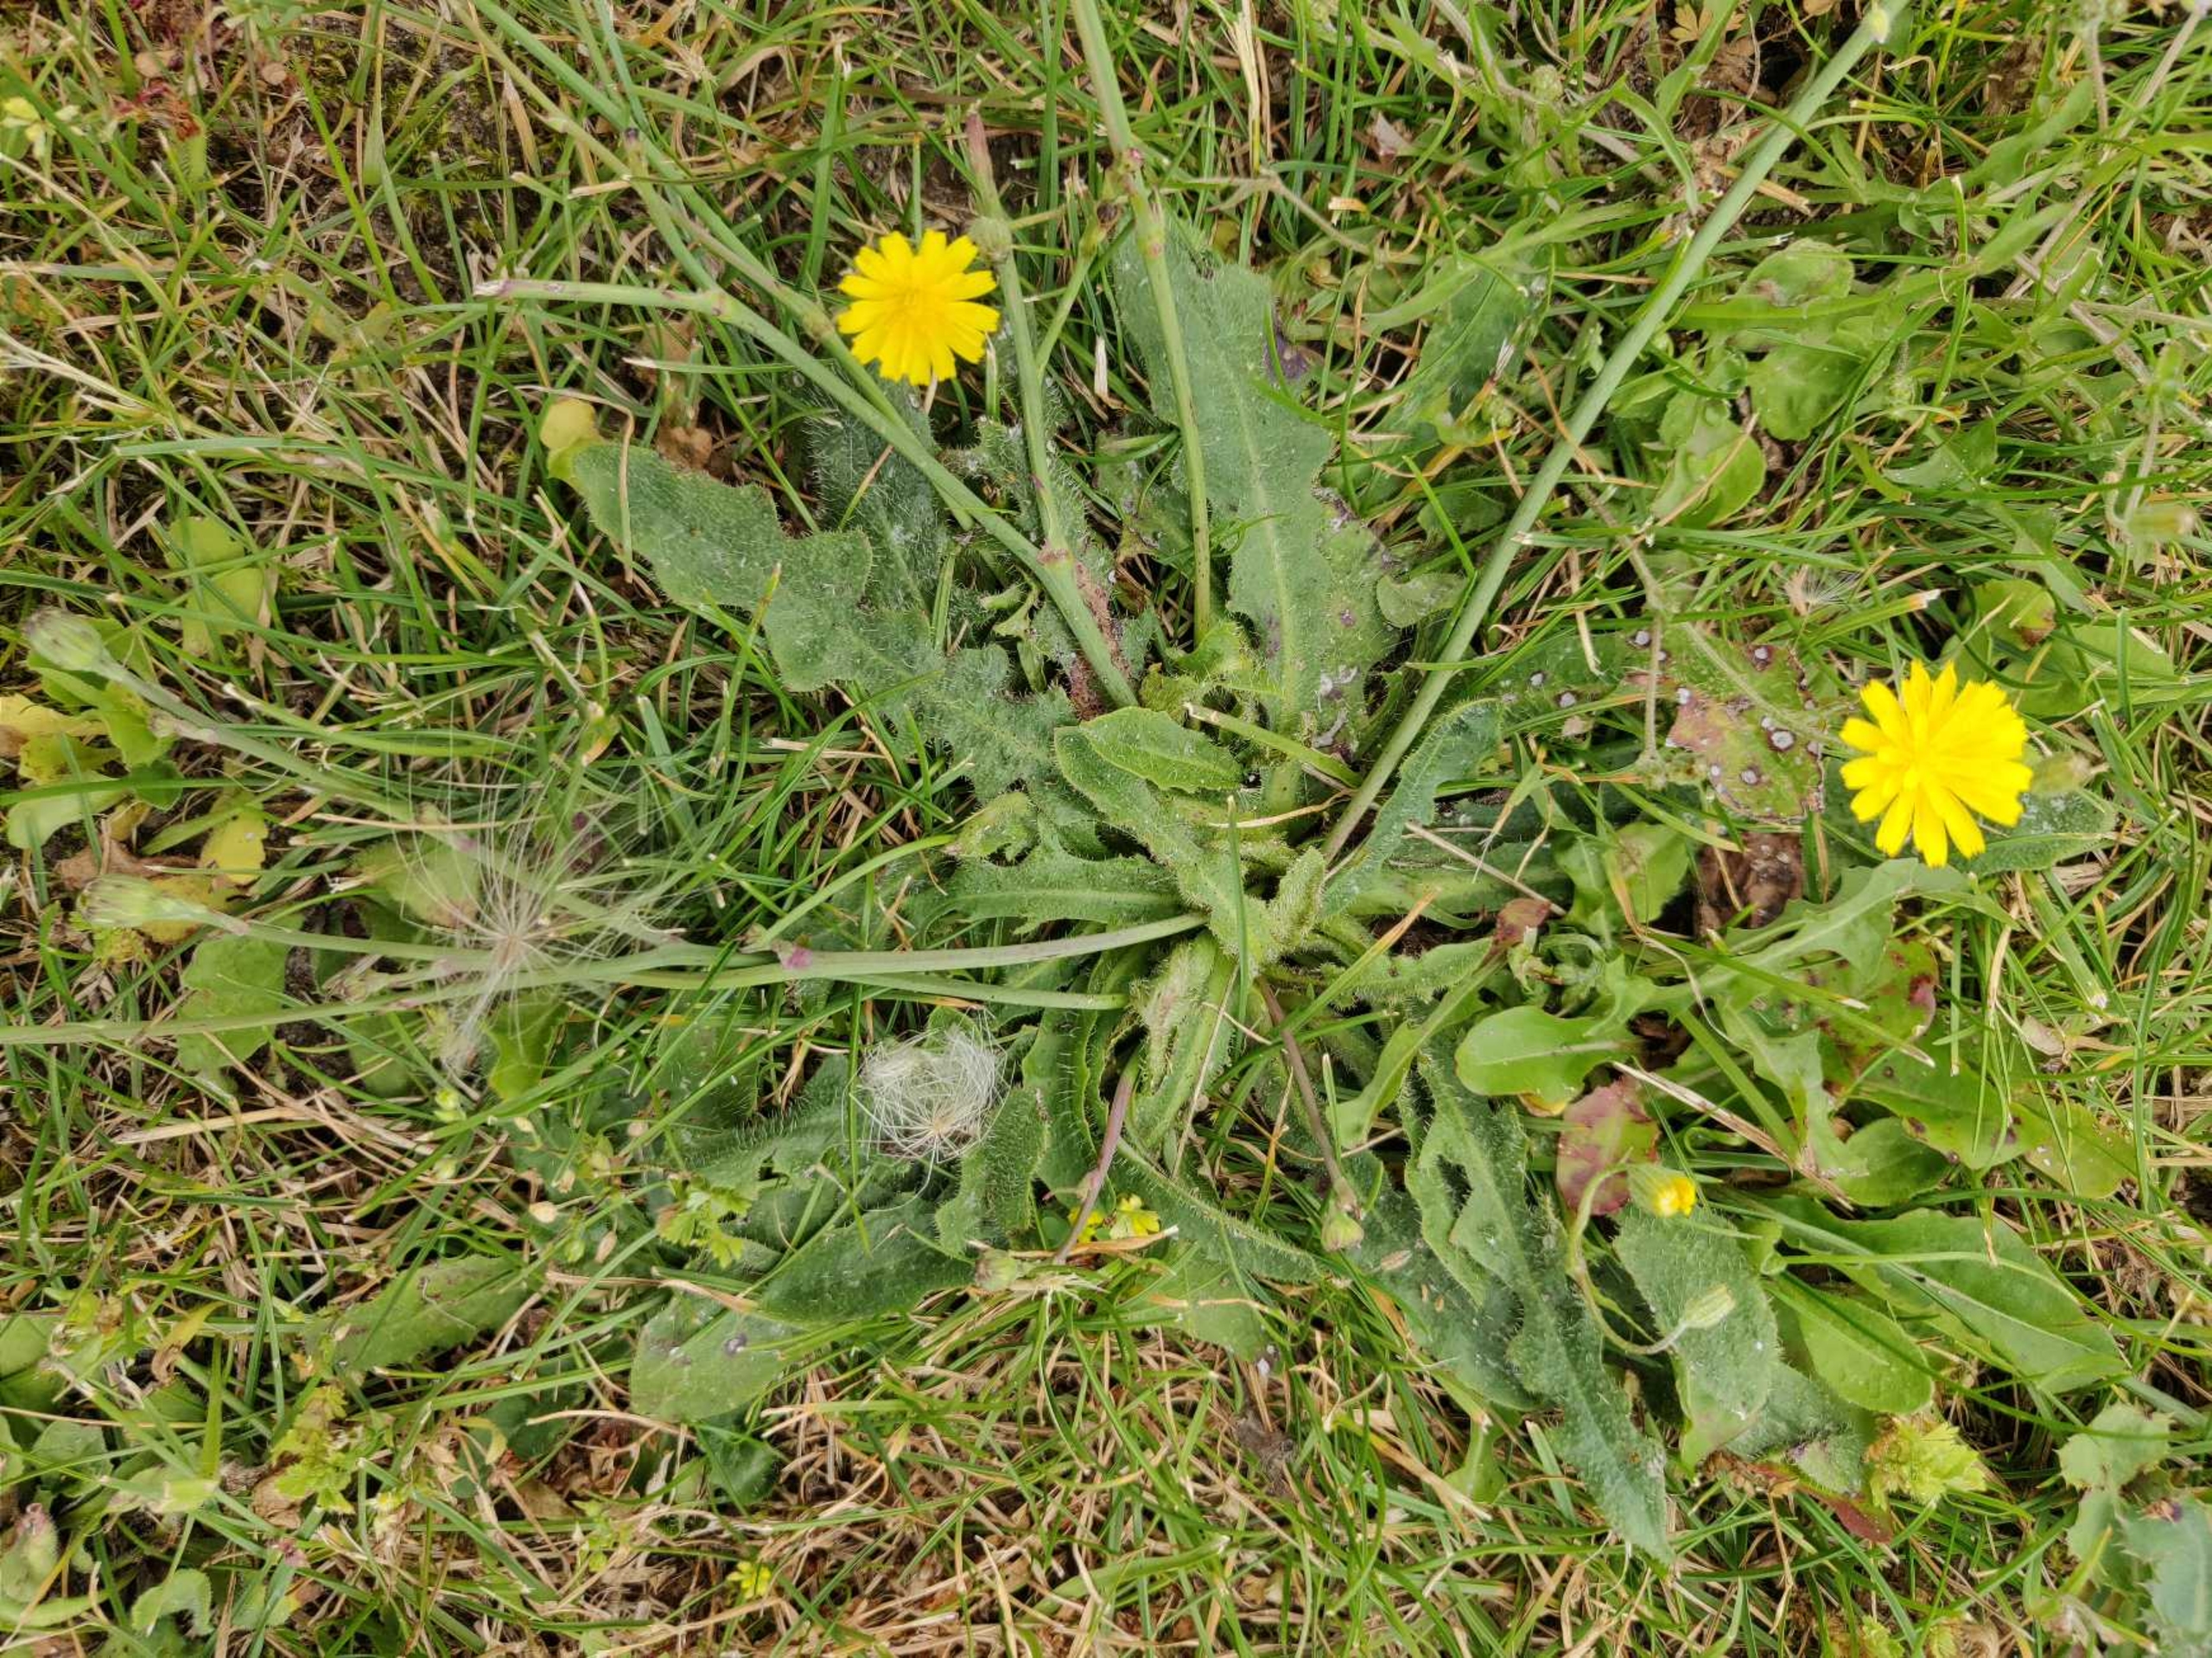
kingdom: Plantae
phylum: Tracheophyta
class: Magnoliopsida
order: Asterales
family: Asteraceae
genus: Hypochaeris
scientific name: Hypochaeris radicata
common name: Almindelig kongepen
